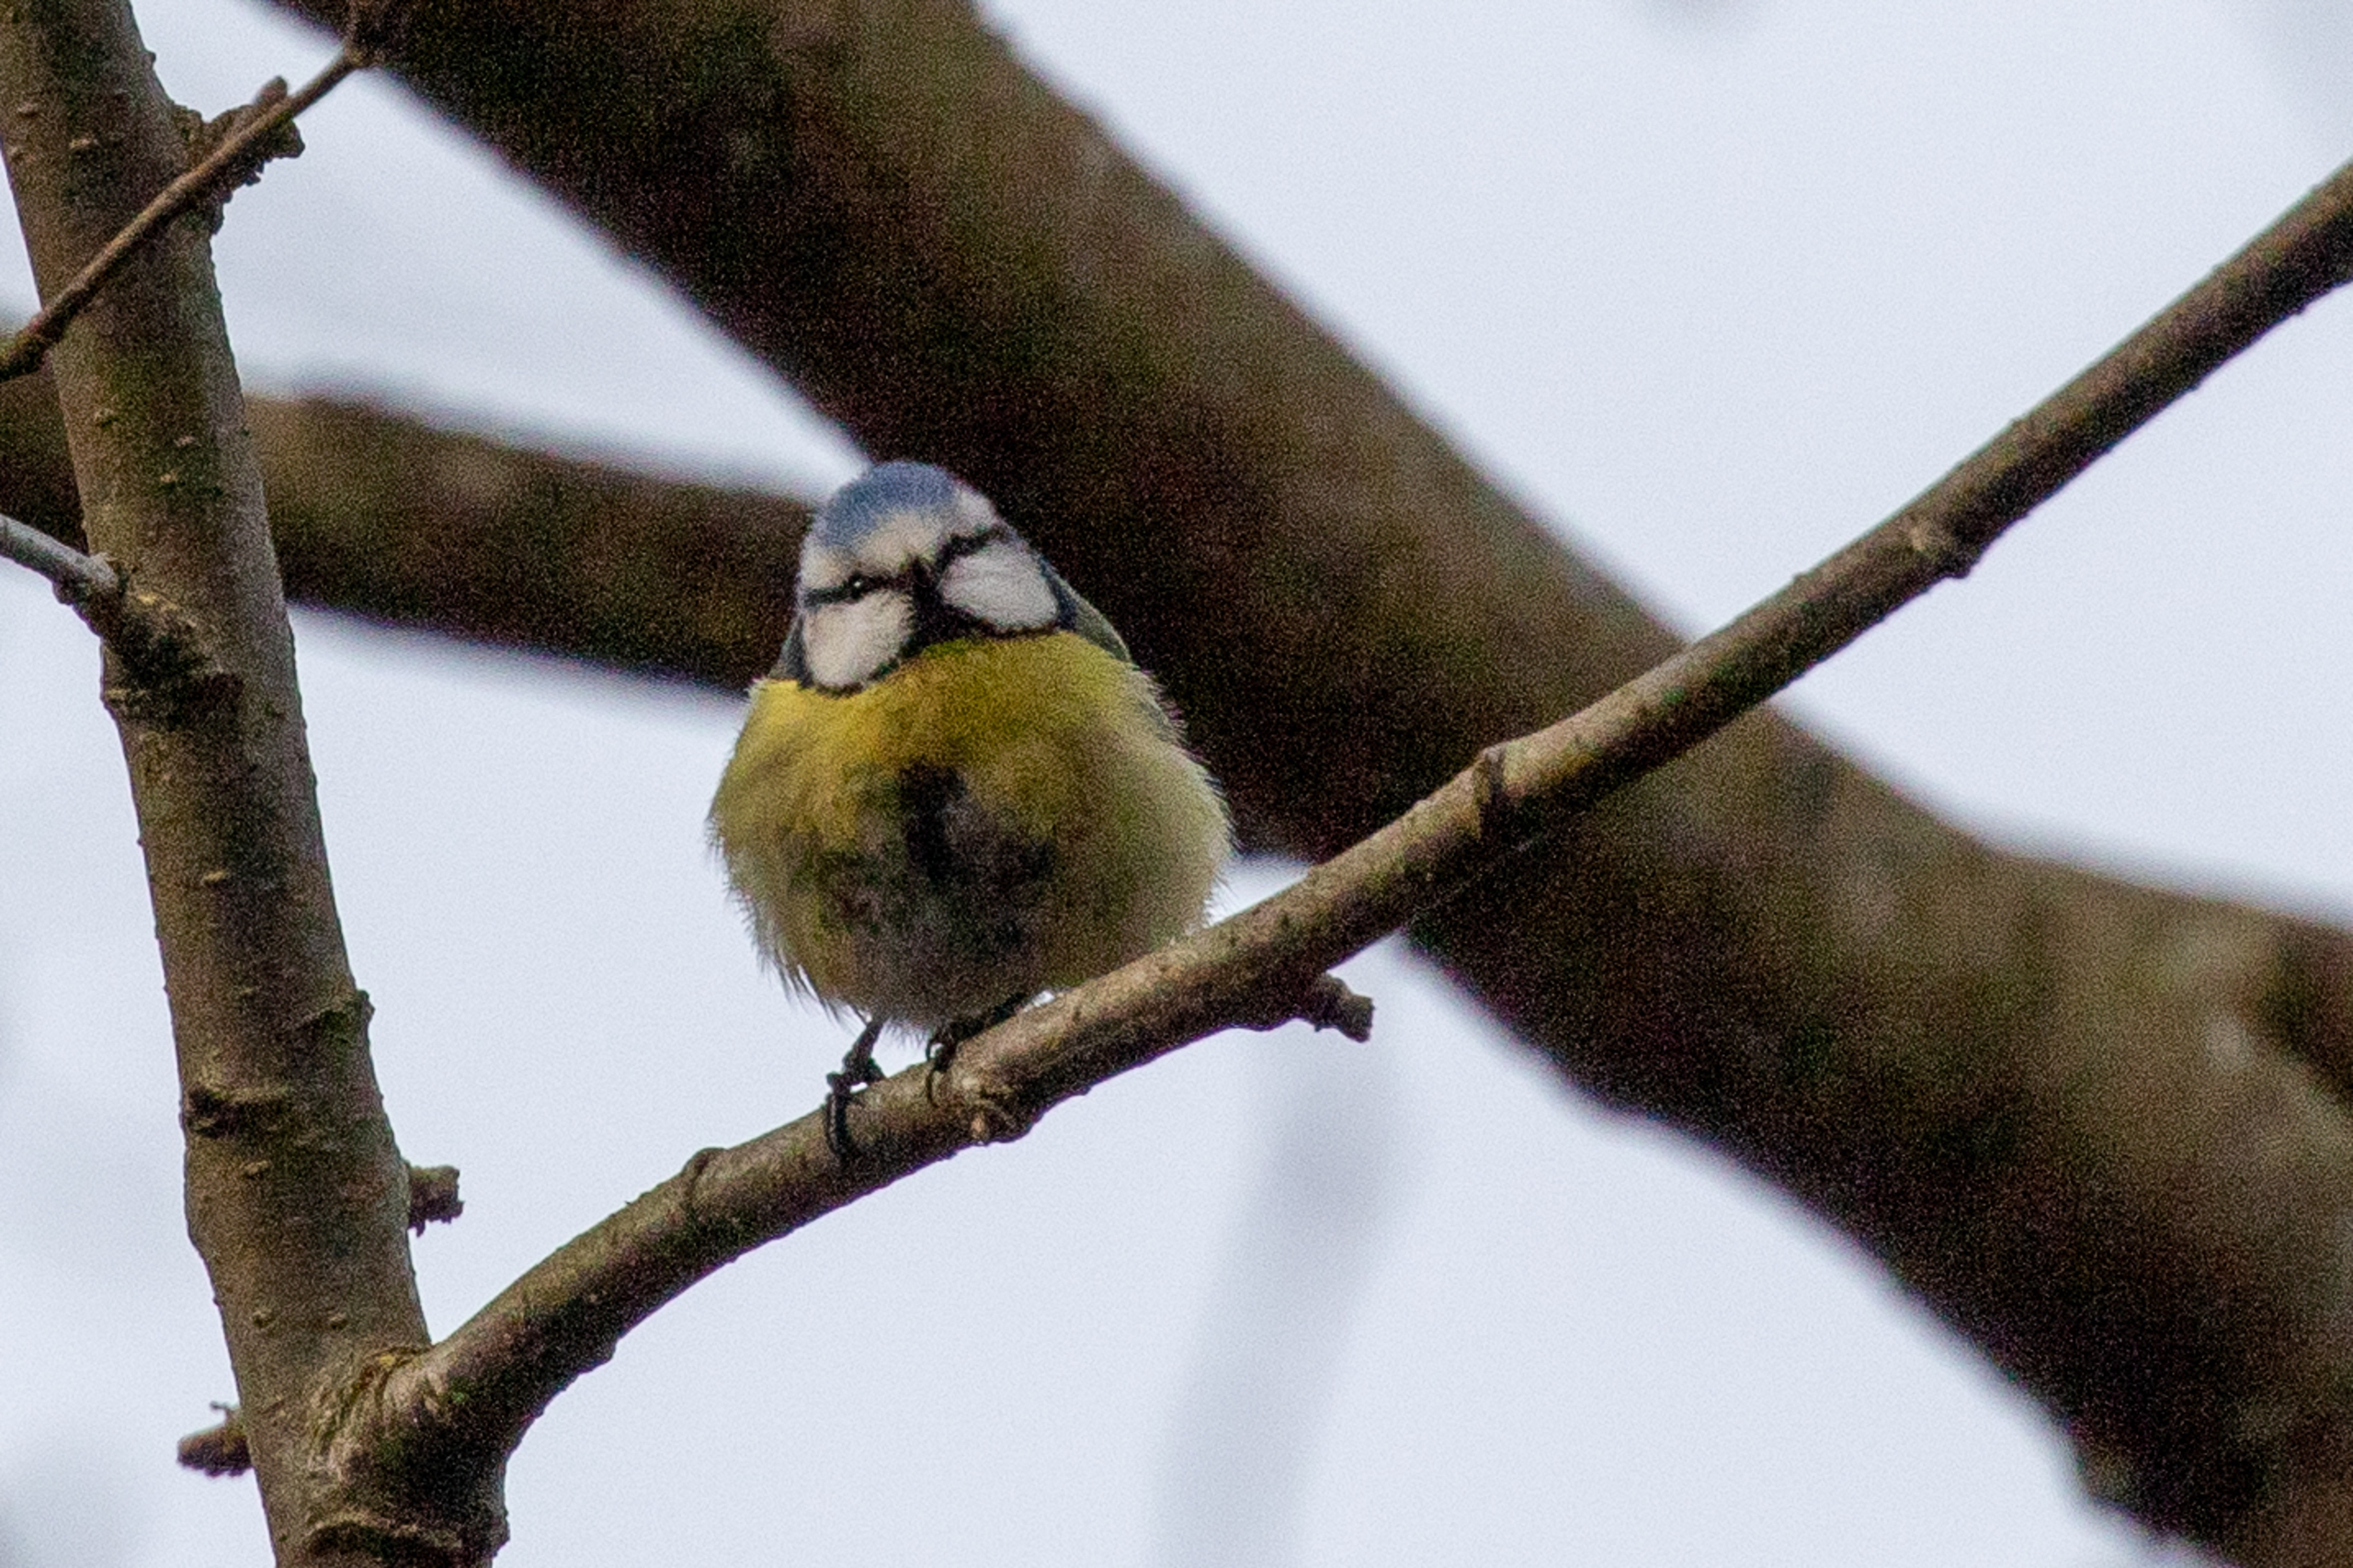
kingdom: Animalia
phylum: Chordata
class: Aves
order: Passeriformes
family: Paridae
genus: Cyanistes
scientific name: Cyanistes caeruleus
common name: Blåmejse
